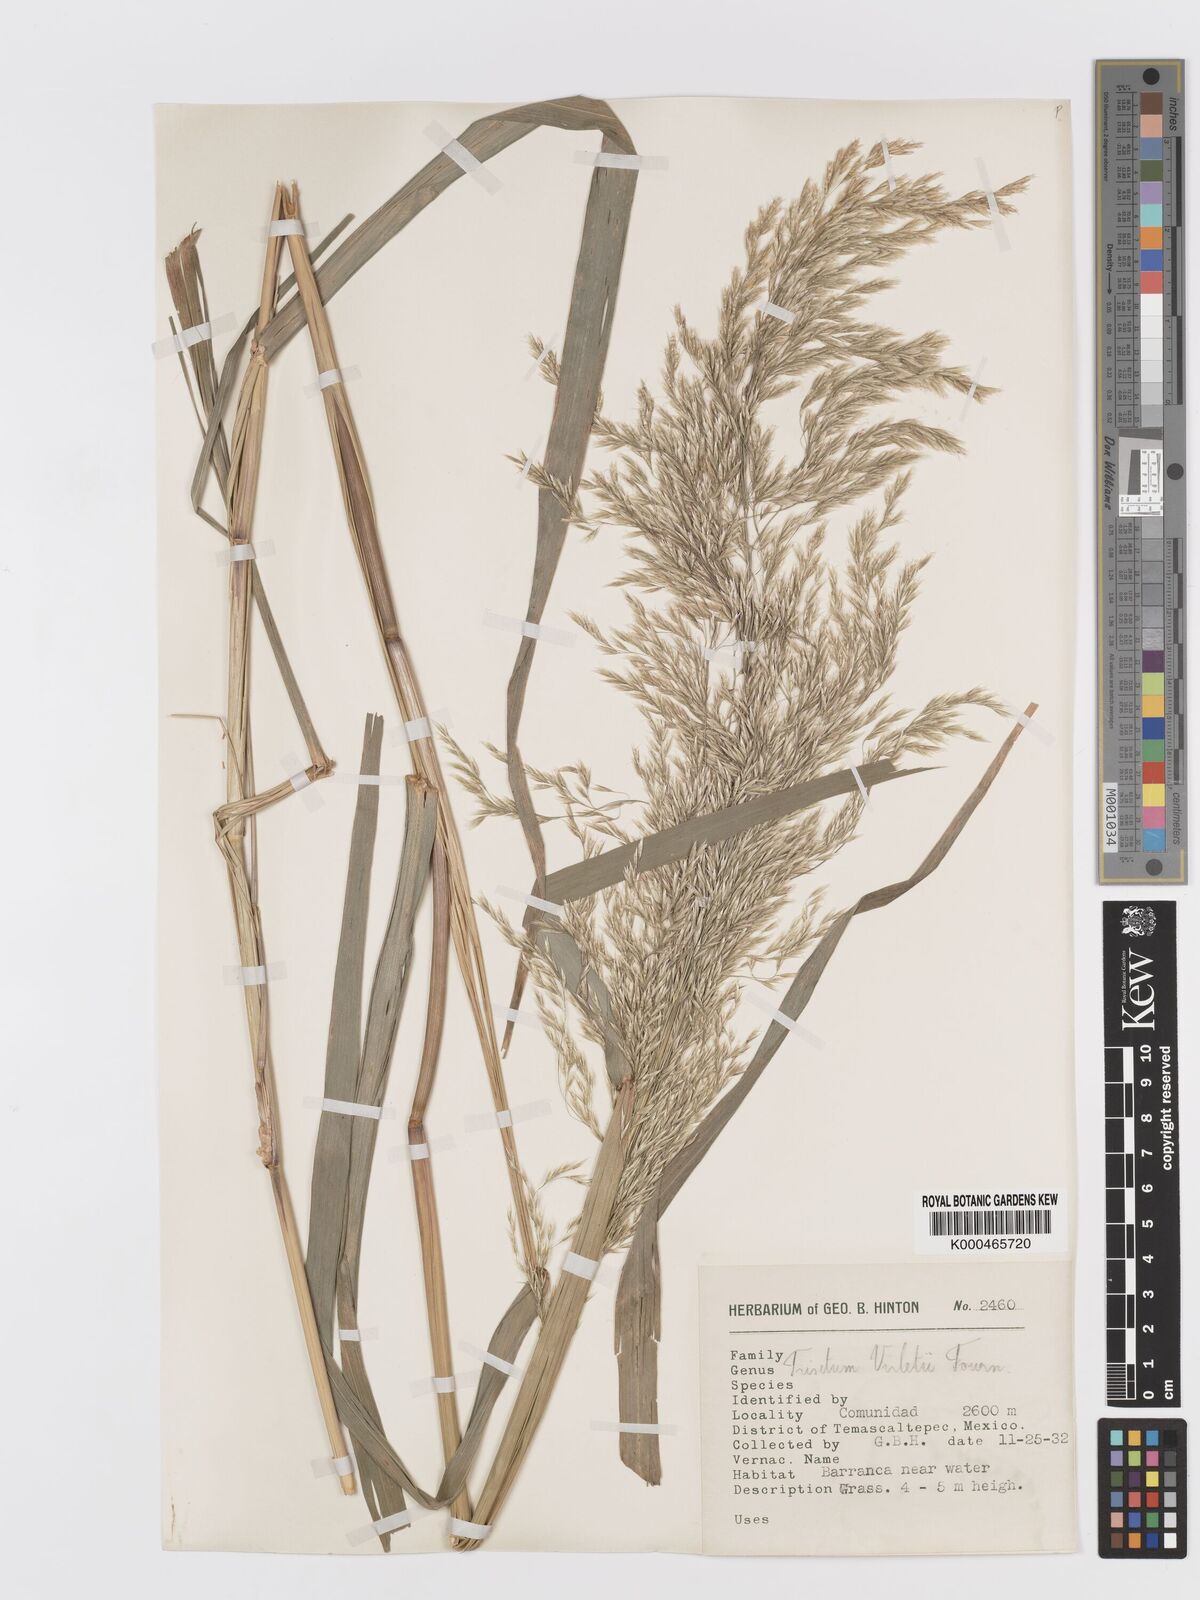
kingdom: Plantae
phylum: Tracheophyta
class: Liliopsida
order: Poales
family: Poaceae
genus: Peyritschia
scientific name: Peyritschia virletii
